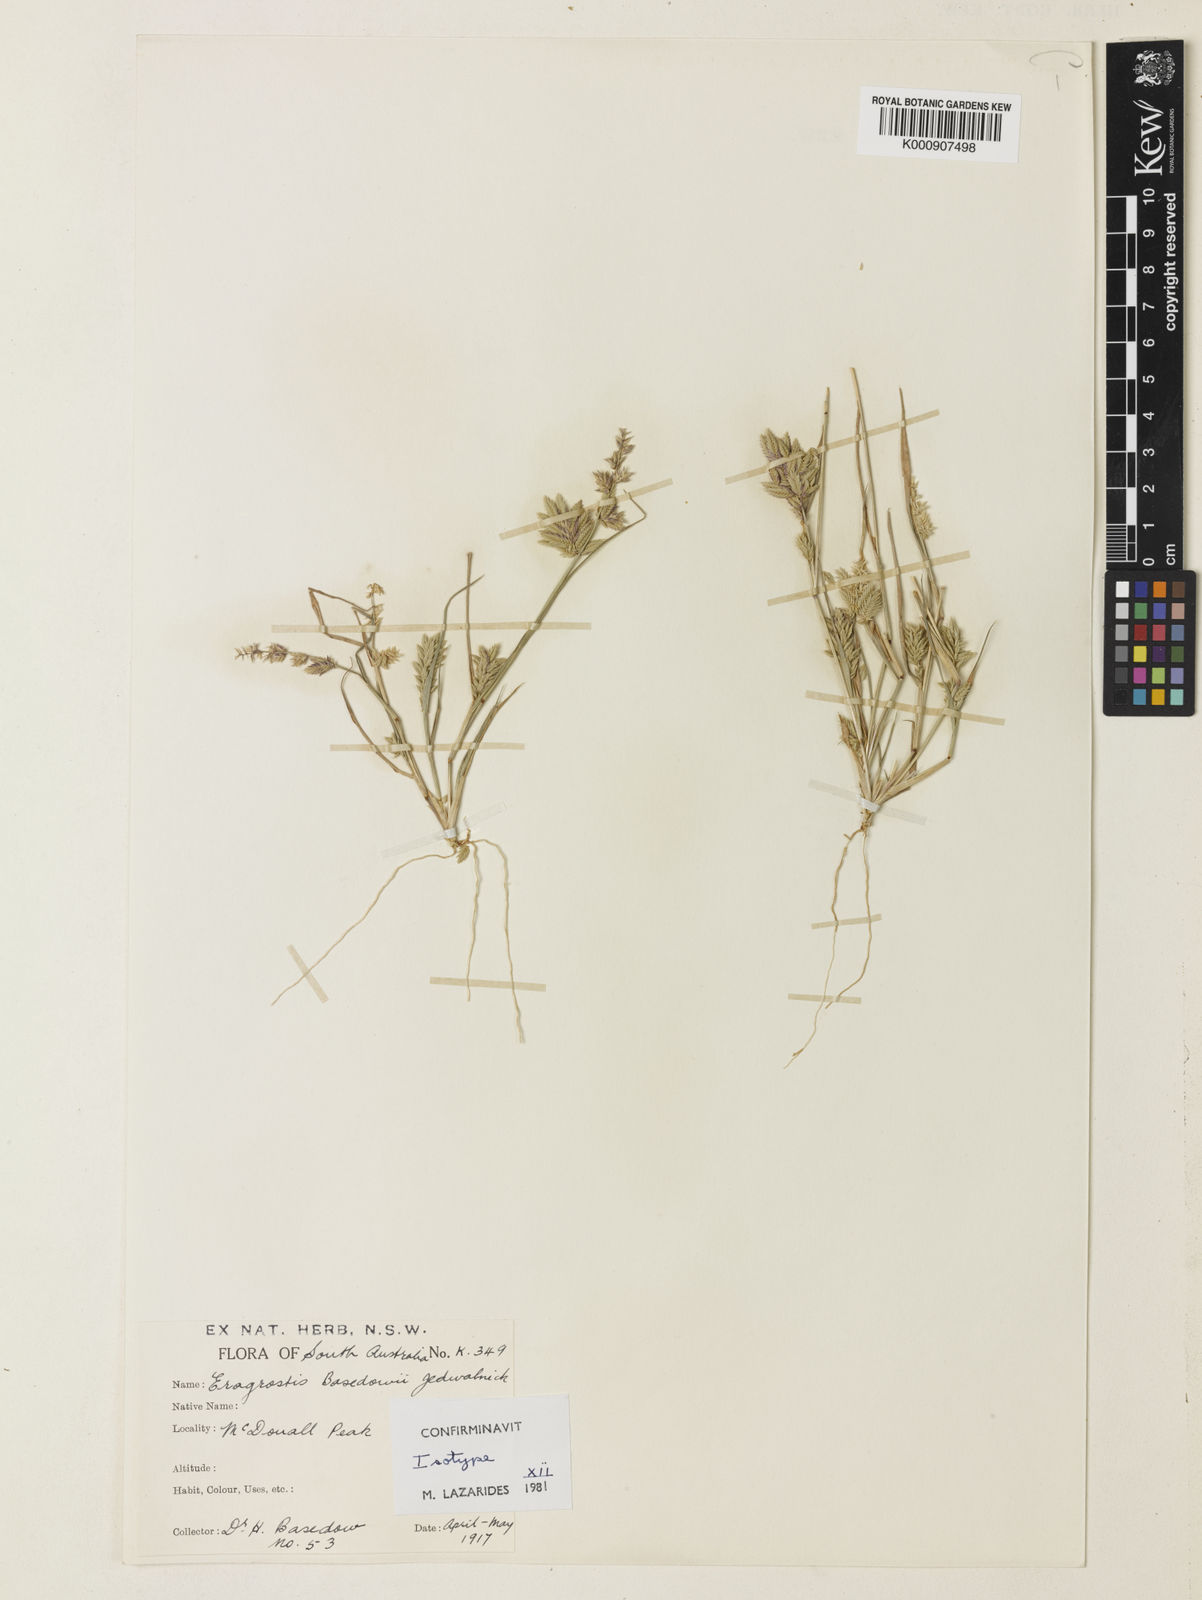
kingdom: Plantae
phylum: Tracheophyta
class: Liliopsida
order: Poales
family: Poaceae
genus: Eragrostis
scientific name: Eragrostis basedowii
